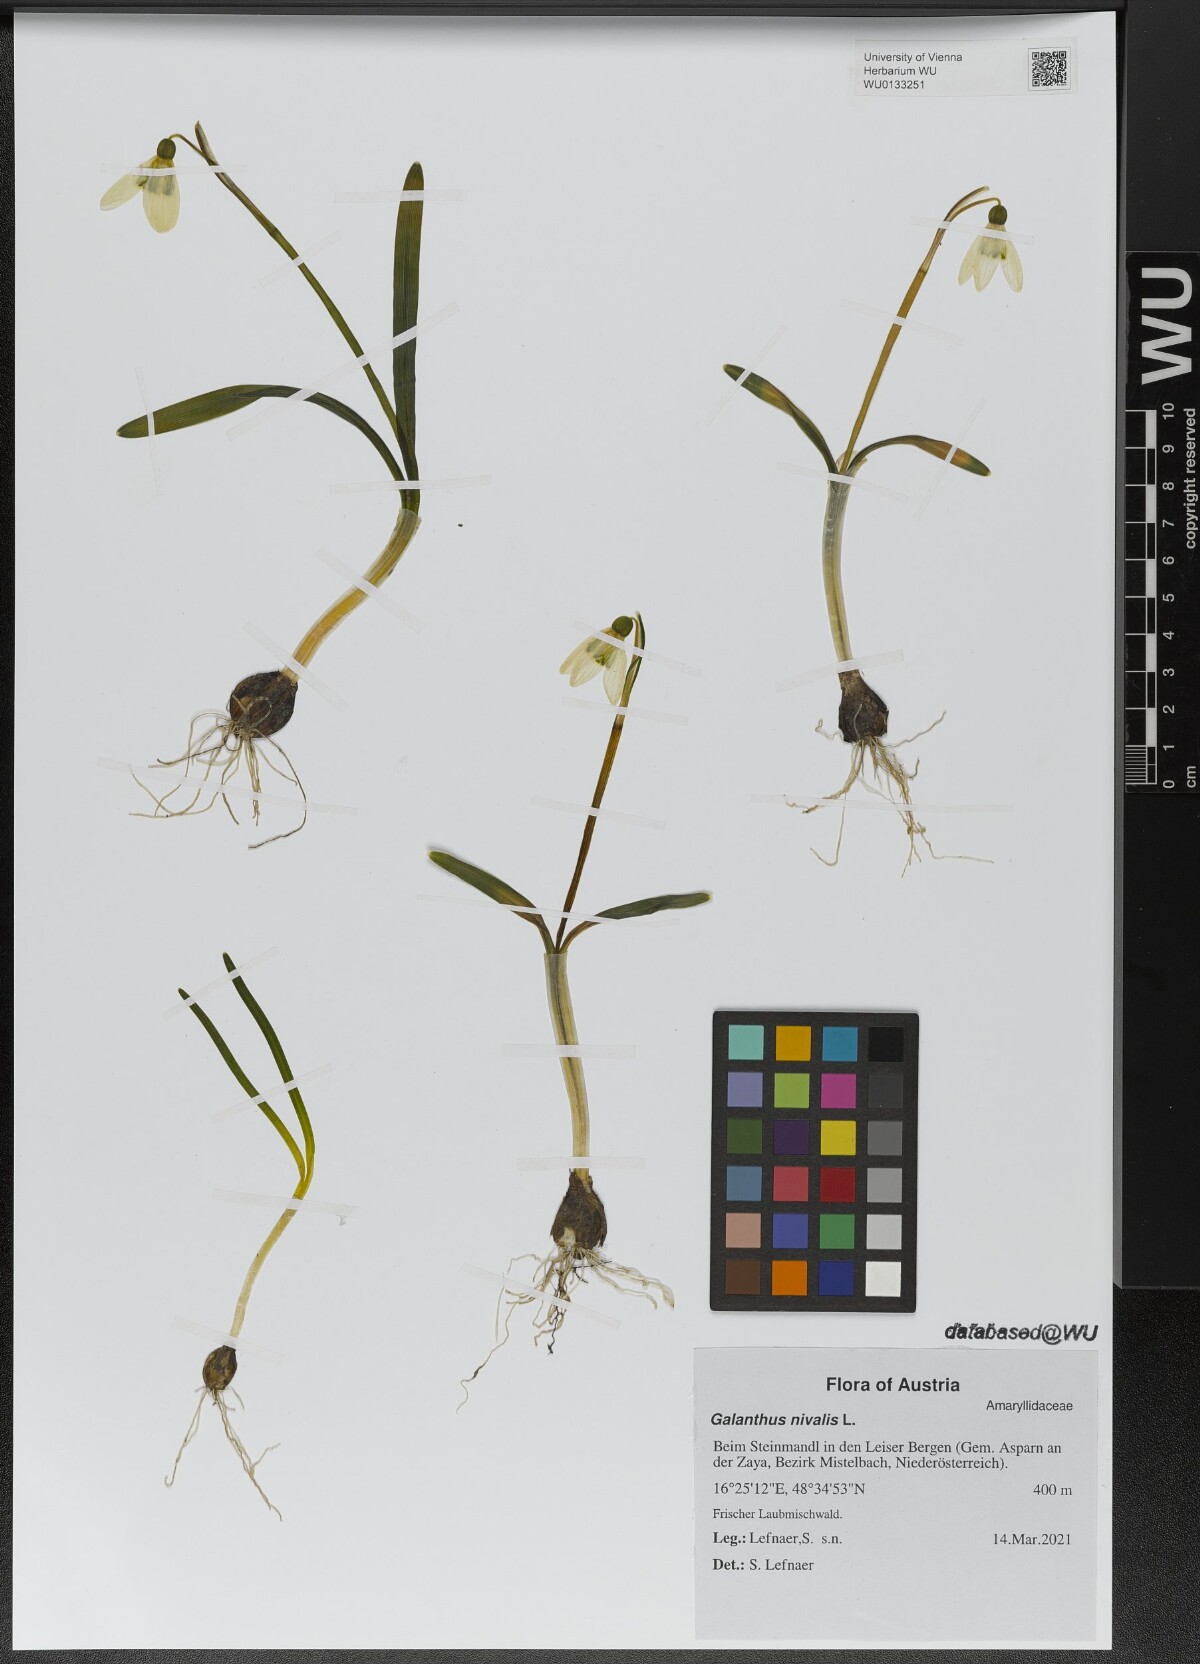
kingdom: Plantae
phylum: Tracheophyta
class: Liliopsida
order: Asparagales
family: Amaryllidaceae
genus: Galanthus
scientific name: Galanthus nivalis
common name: Snowdrop
